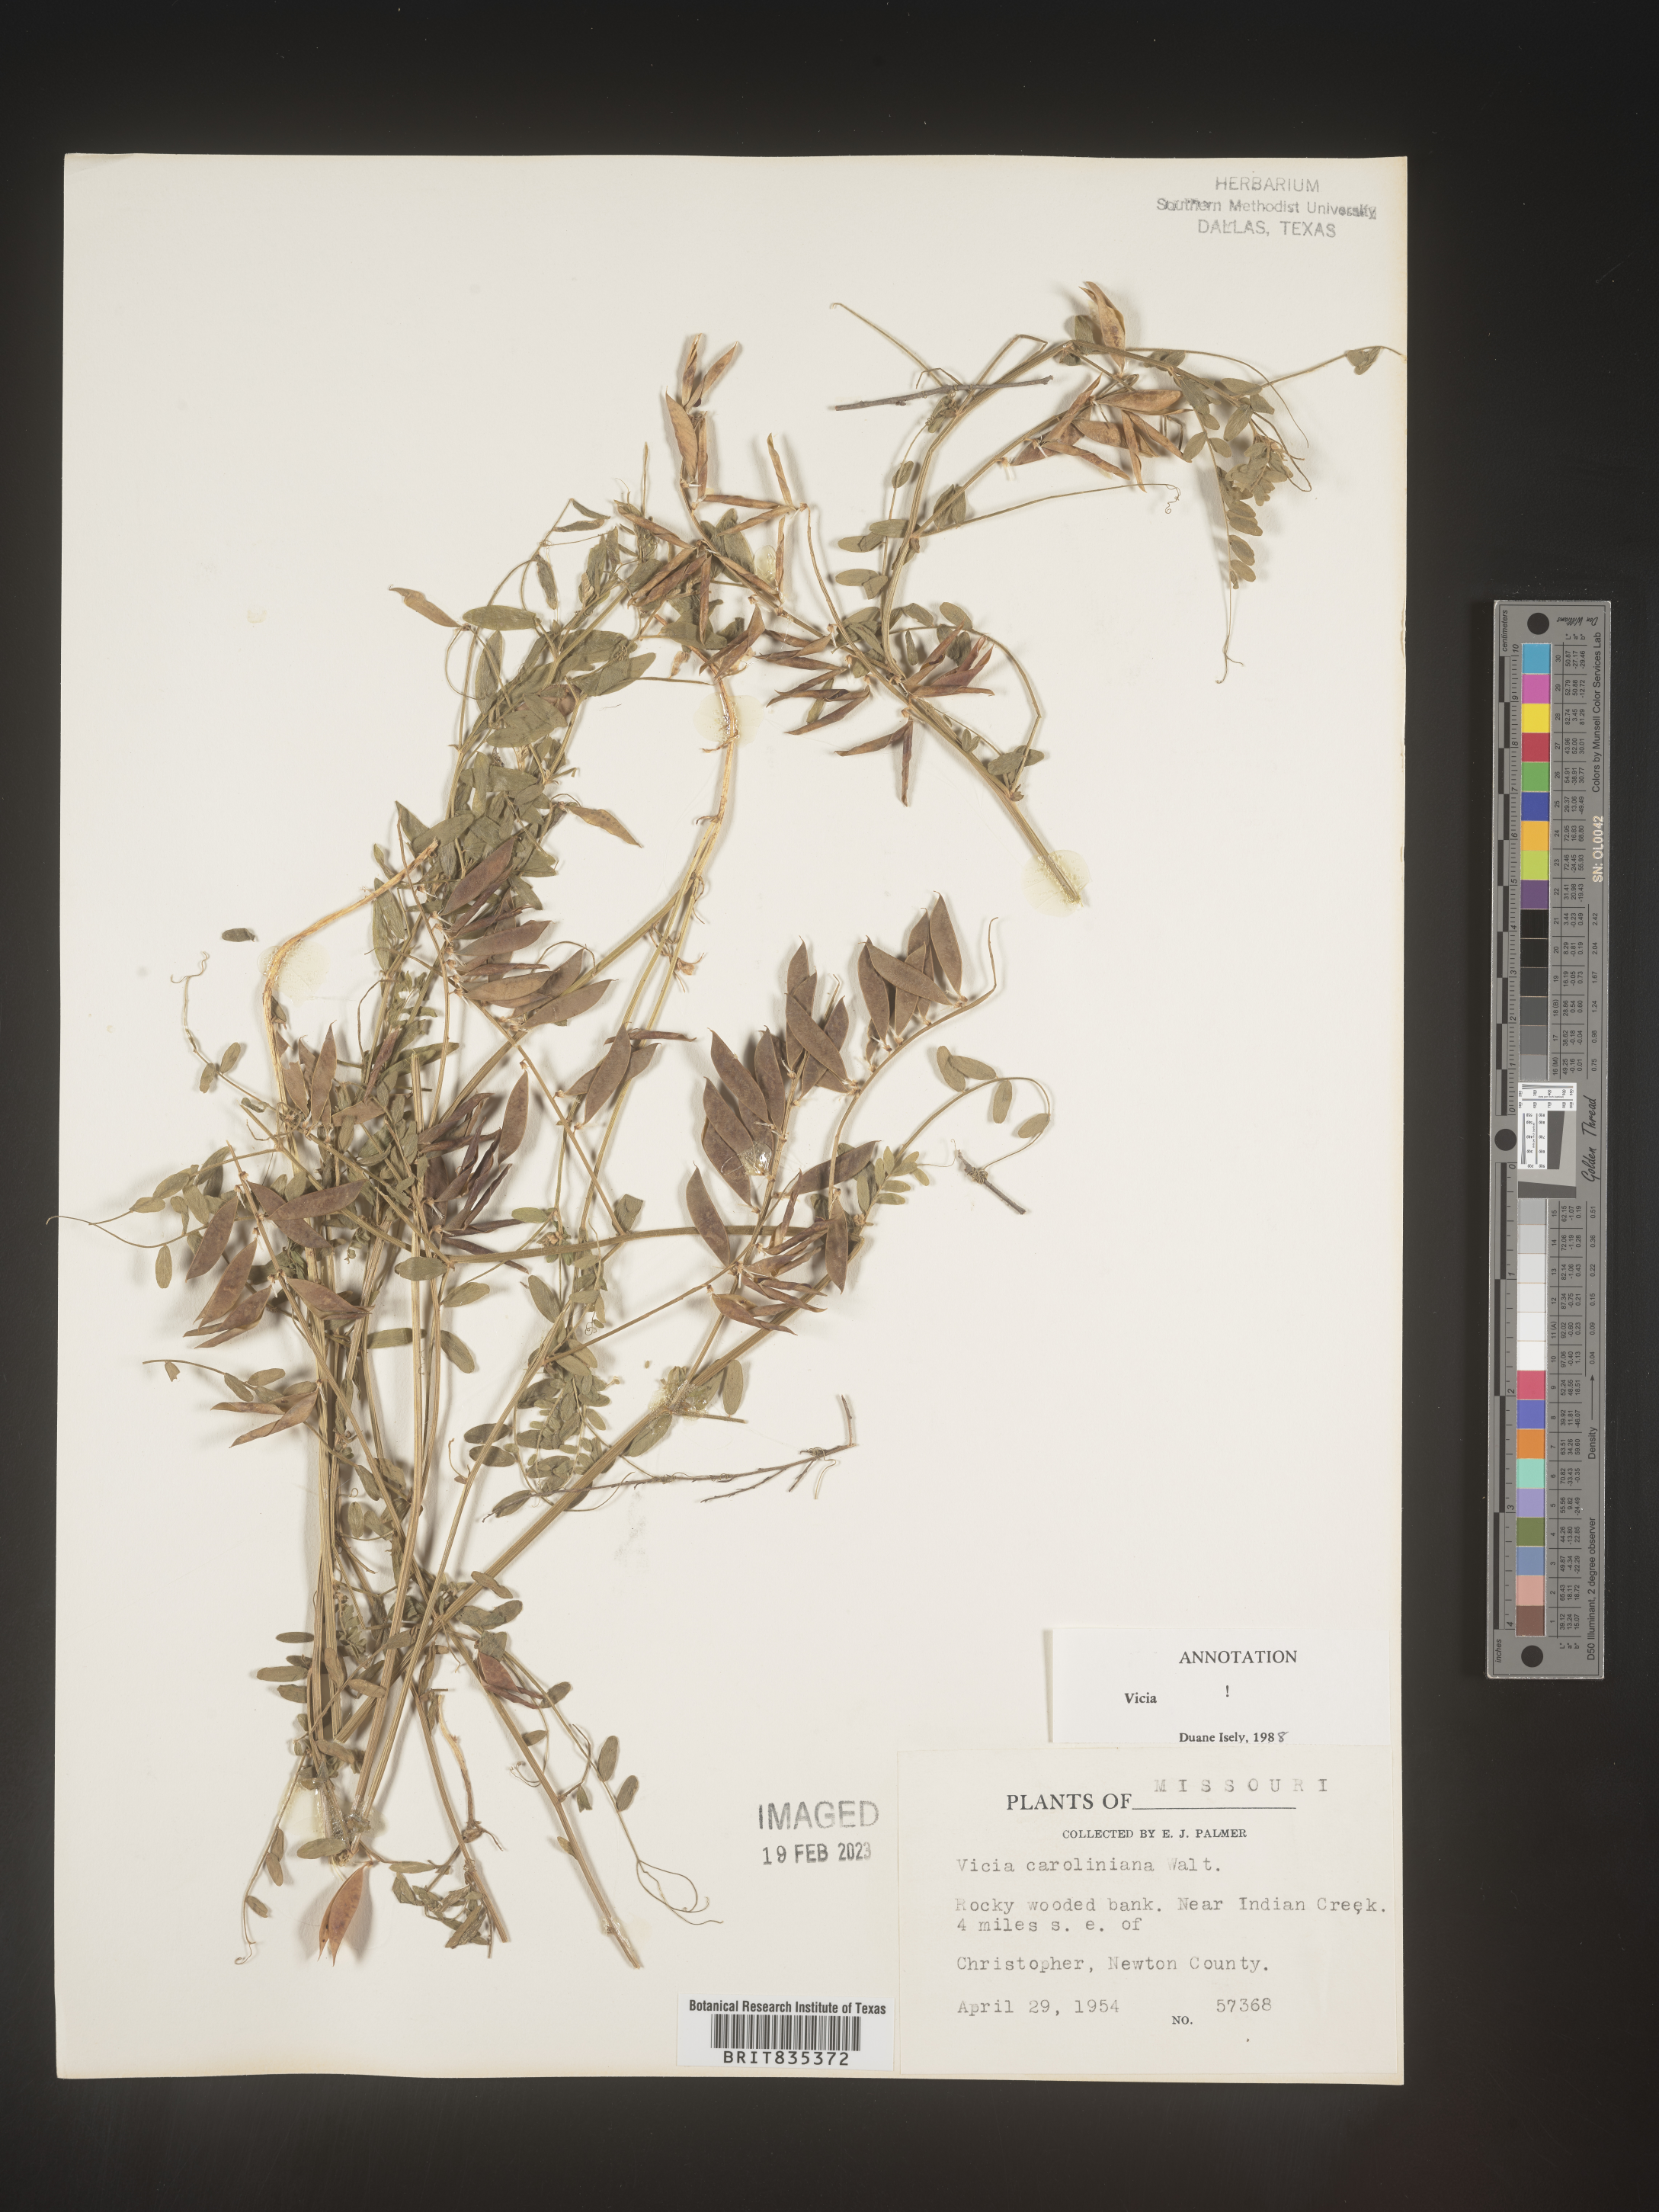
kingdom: Plantae
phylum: Tracheophyta
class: Magnoliopsida
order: Fabales
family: Fabaceae
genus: Vicia
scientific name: Vicia caroliniana
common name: Carolina vetch
